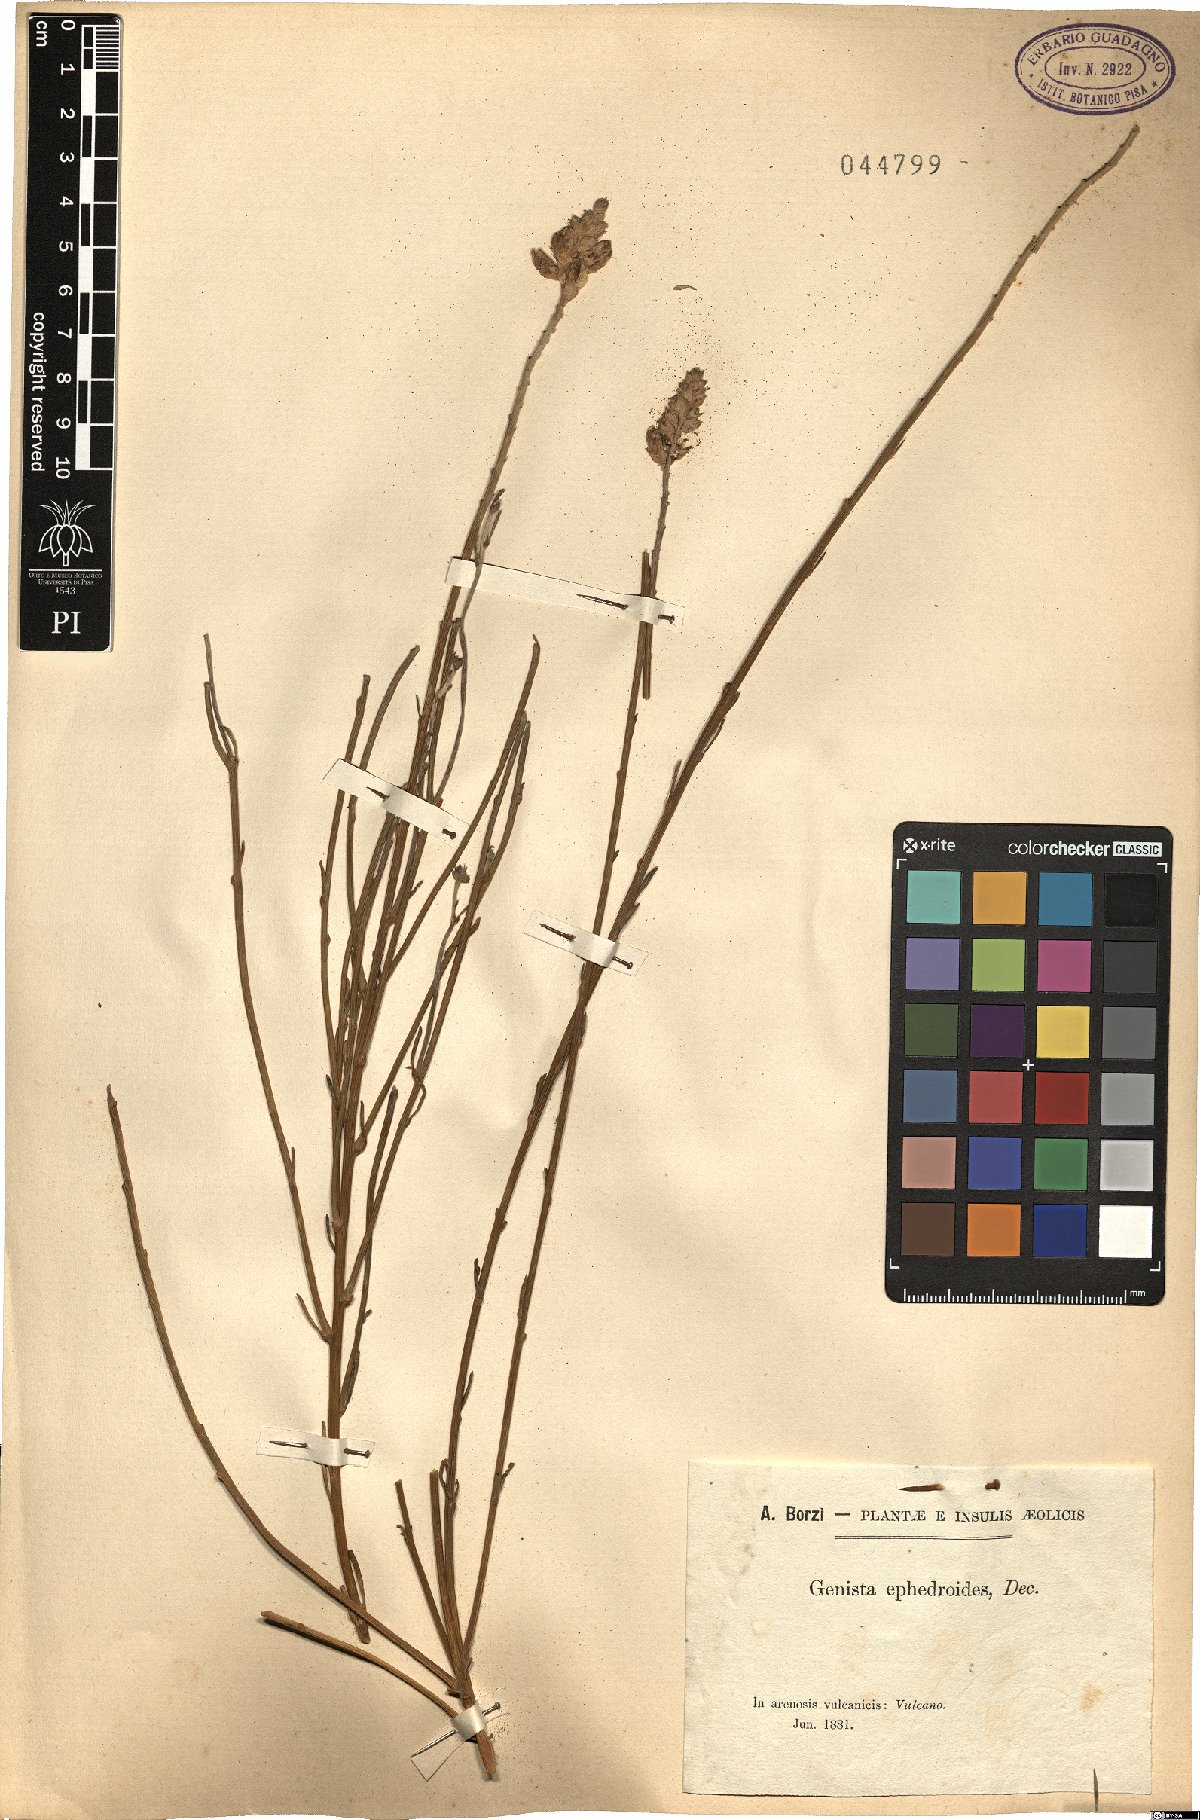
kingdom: Plantae
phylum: Tracheophyta
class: Magnoliopsida
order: Fabales
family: Fabaceae
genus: Genista
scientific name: Genista ephedroides
